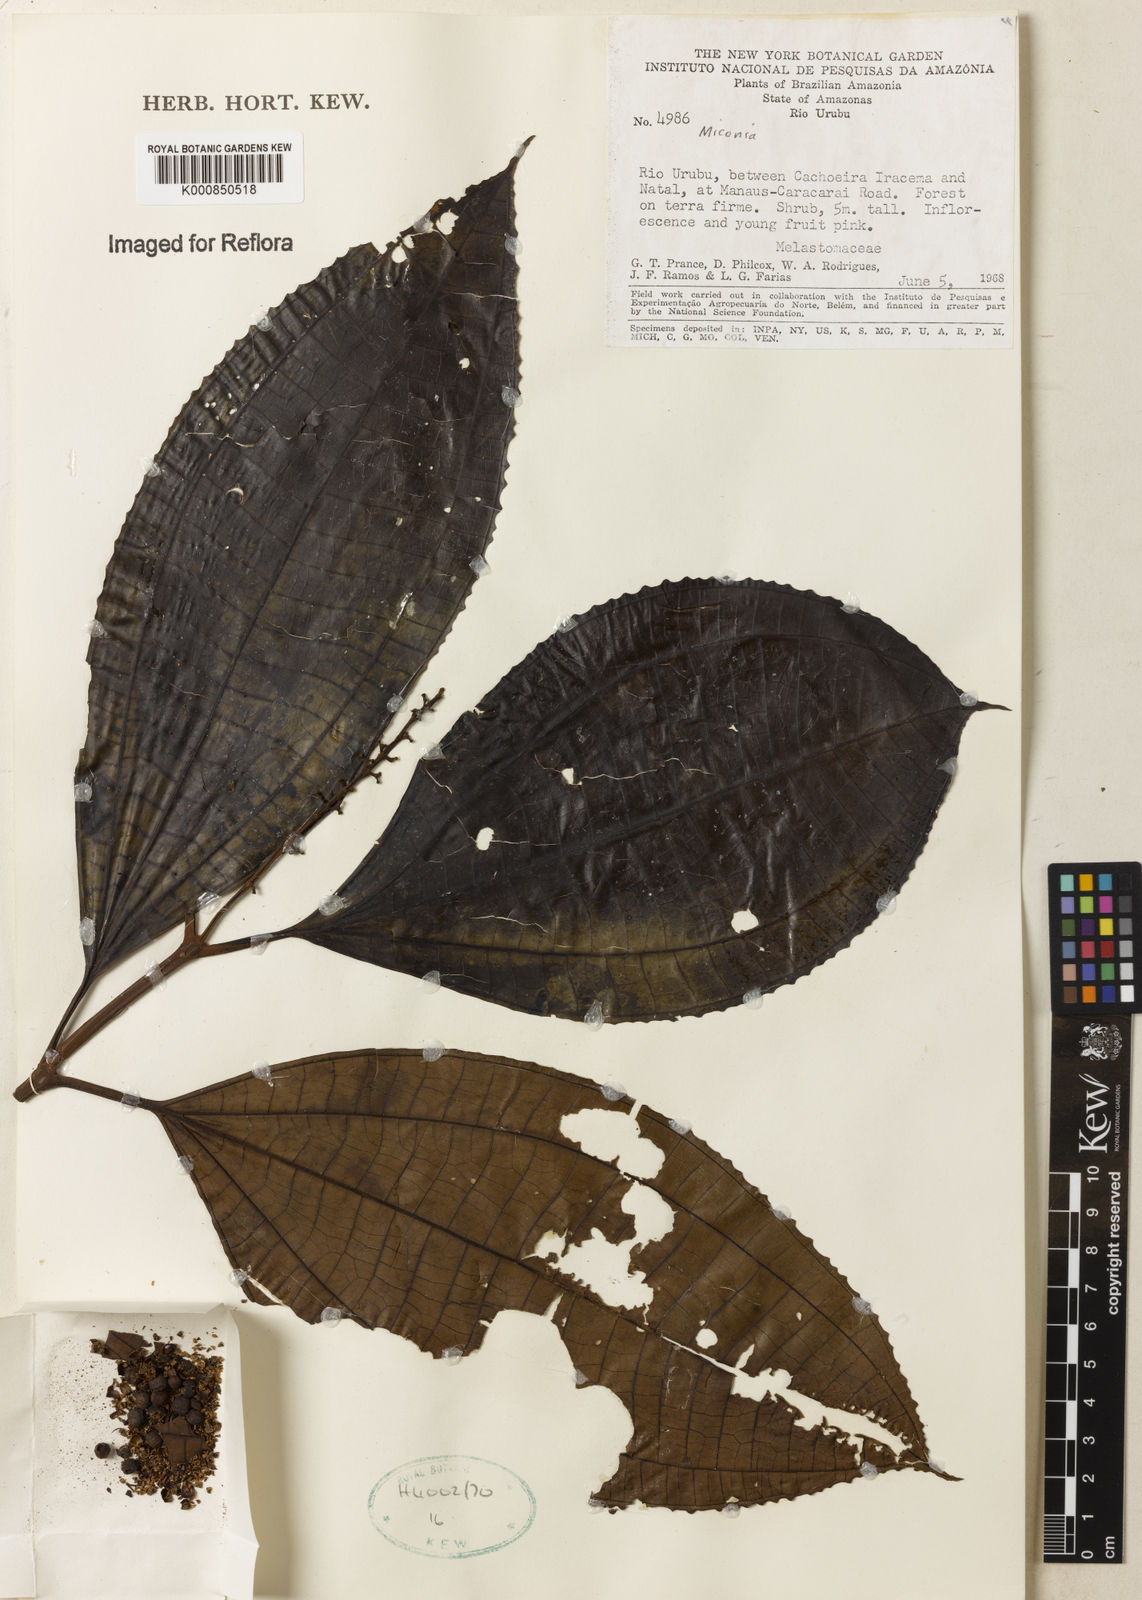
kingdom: Plantae
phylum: Tracheophyta
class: Magnoliopsida
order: Myrtales
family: Melastomataceae
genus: Miconia
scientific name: Miconia
